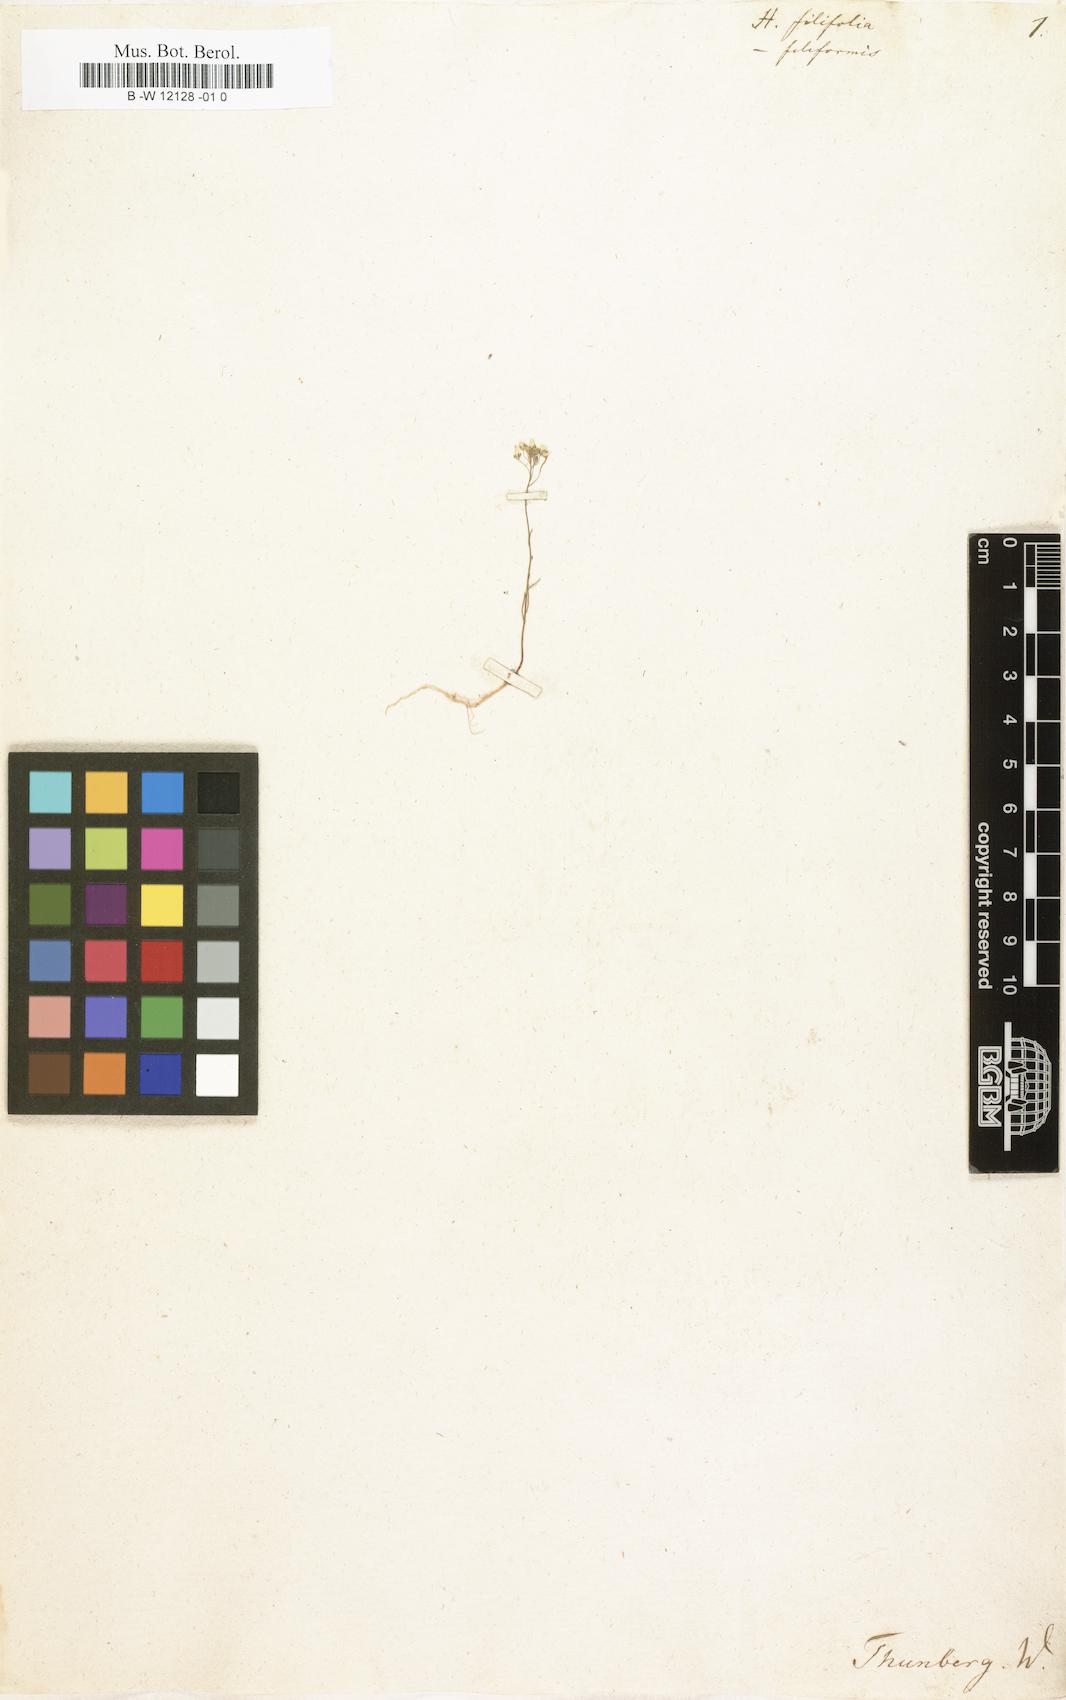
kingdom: Plantae
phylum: Tracheophyta
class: Magnoliopsida
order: Brassicales
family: Brassicaceae
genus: Heliophila
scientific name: Heliophila coronopifolia
